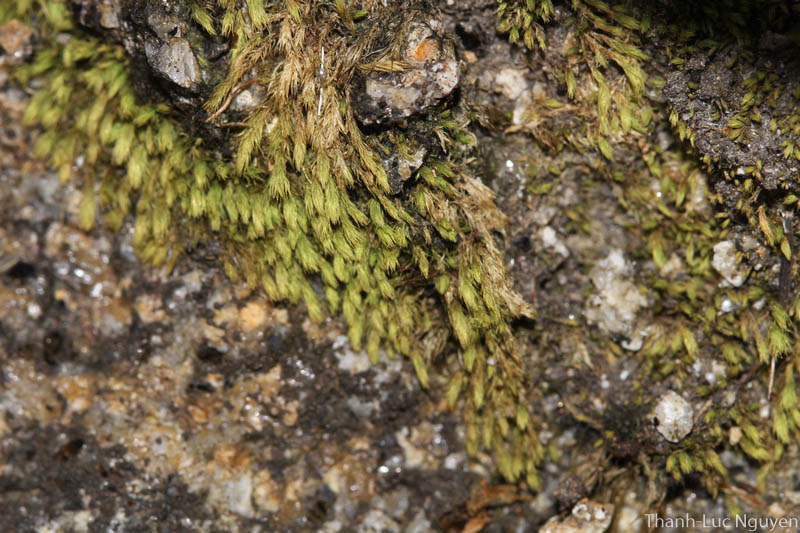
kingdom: Plantae
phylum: Bryophyta
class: Bryopsida
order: Bartramiales
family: Bartramiaceae
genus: Philonotis
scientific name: Philonotis falcata
